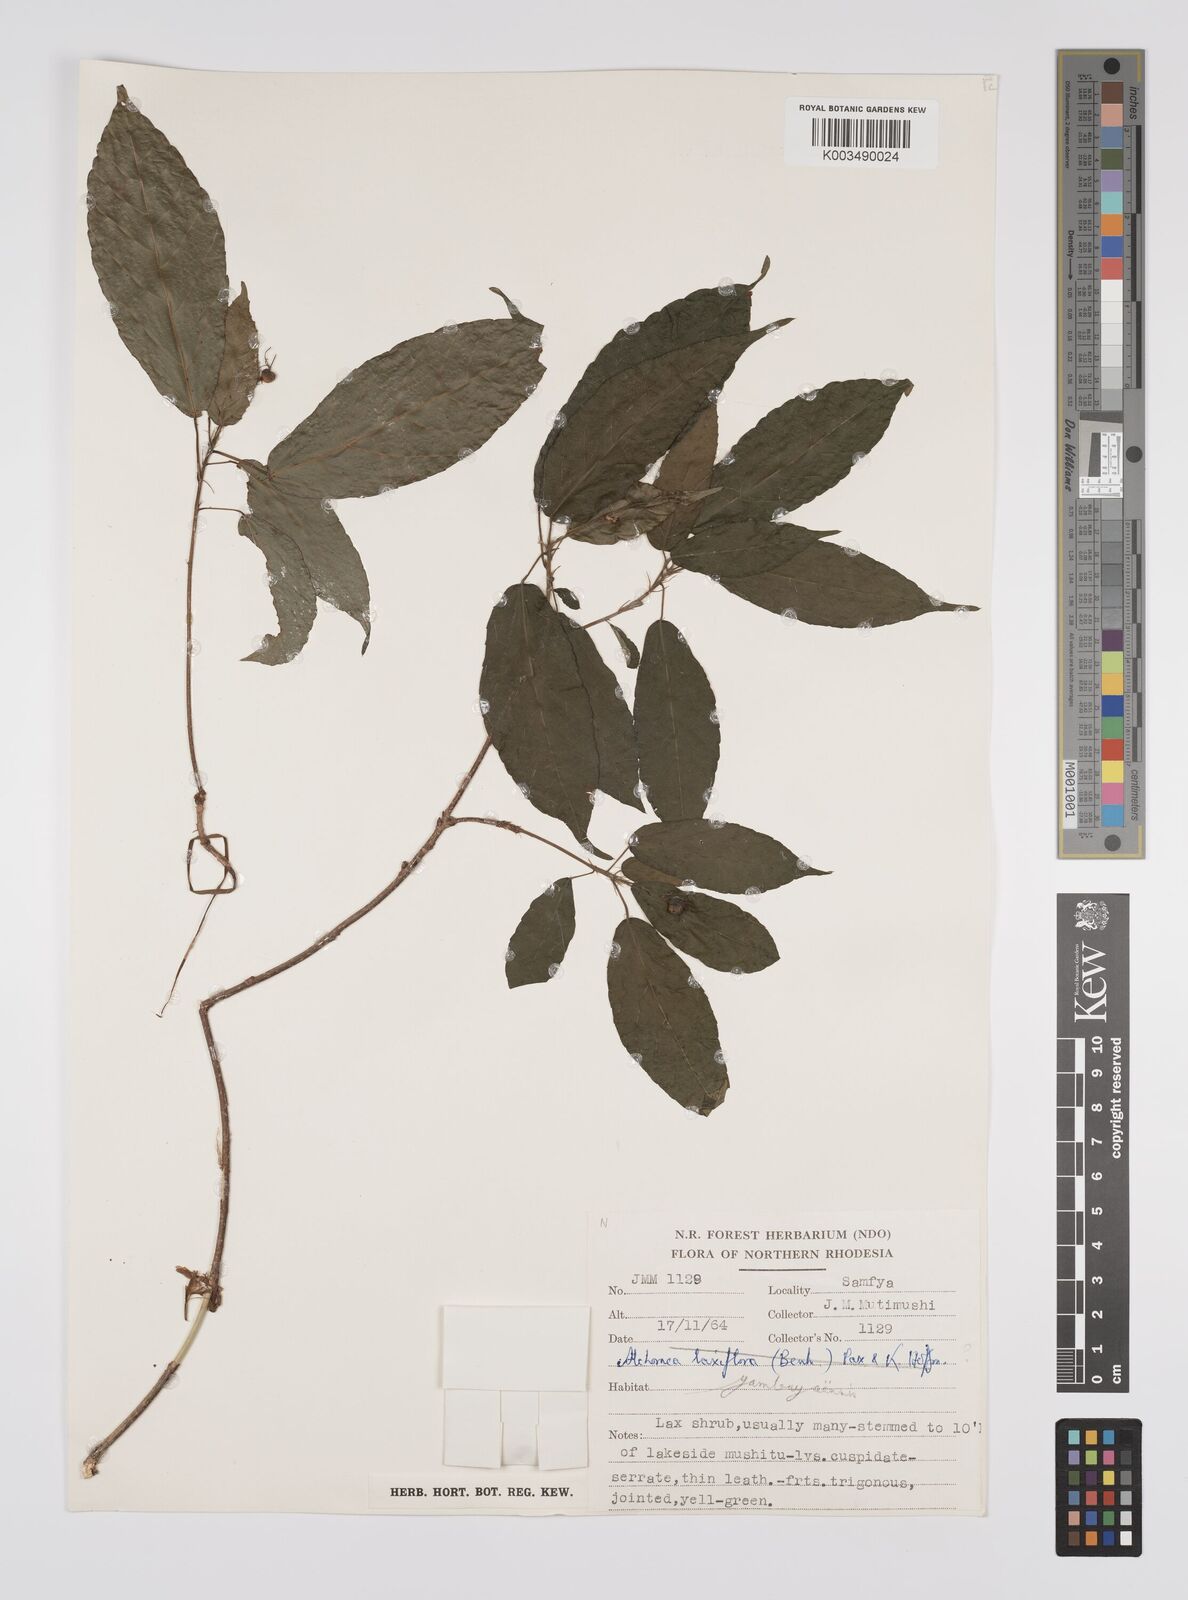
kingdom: Plantae
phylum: Tracheophyta
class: Magnoliopsida
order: Malpighiales
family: Euphorbiaceae
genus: Alchornea
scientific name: Alchornea yambuyaensis
